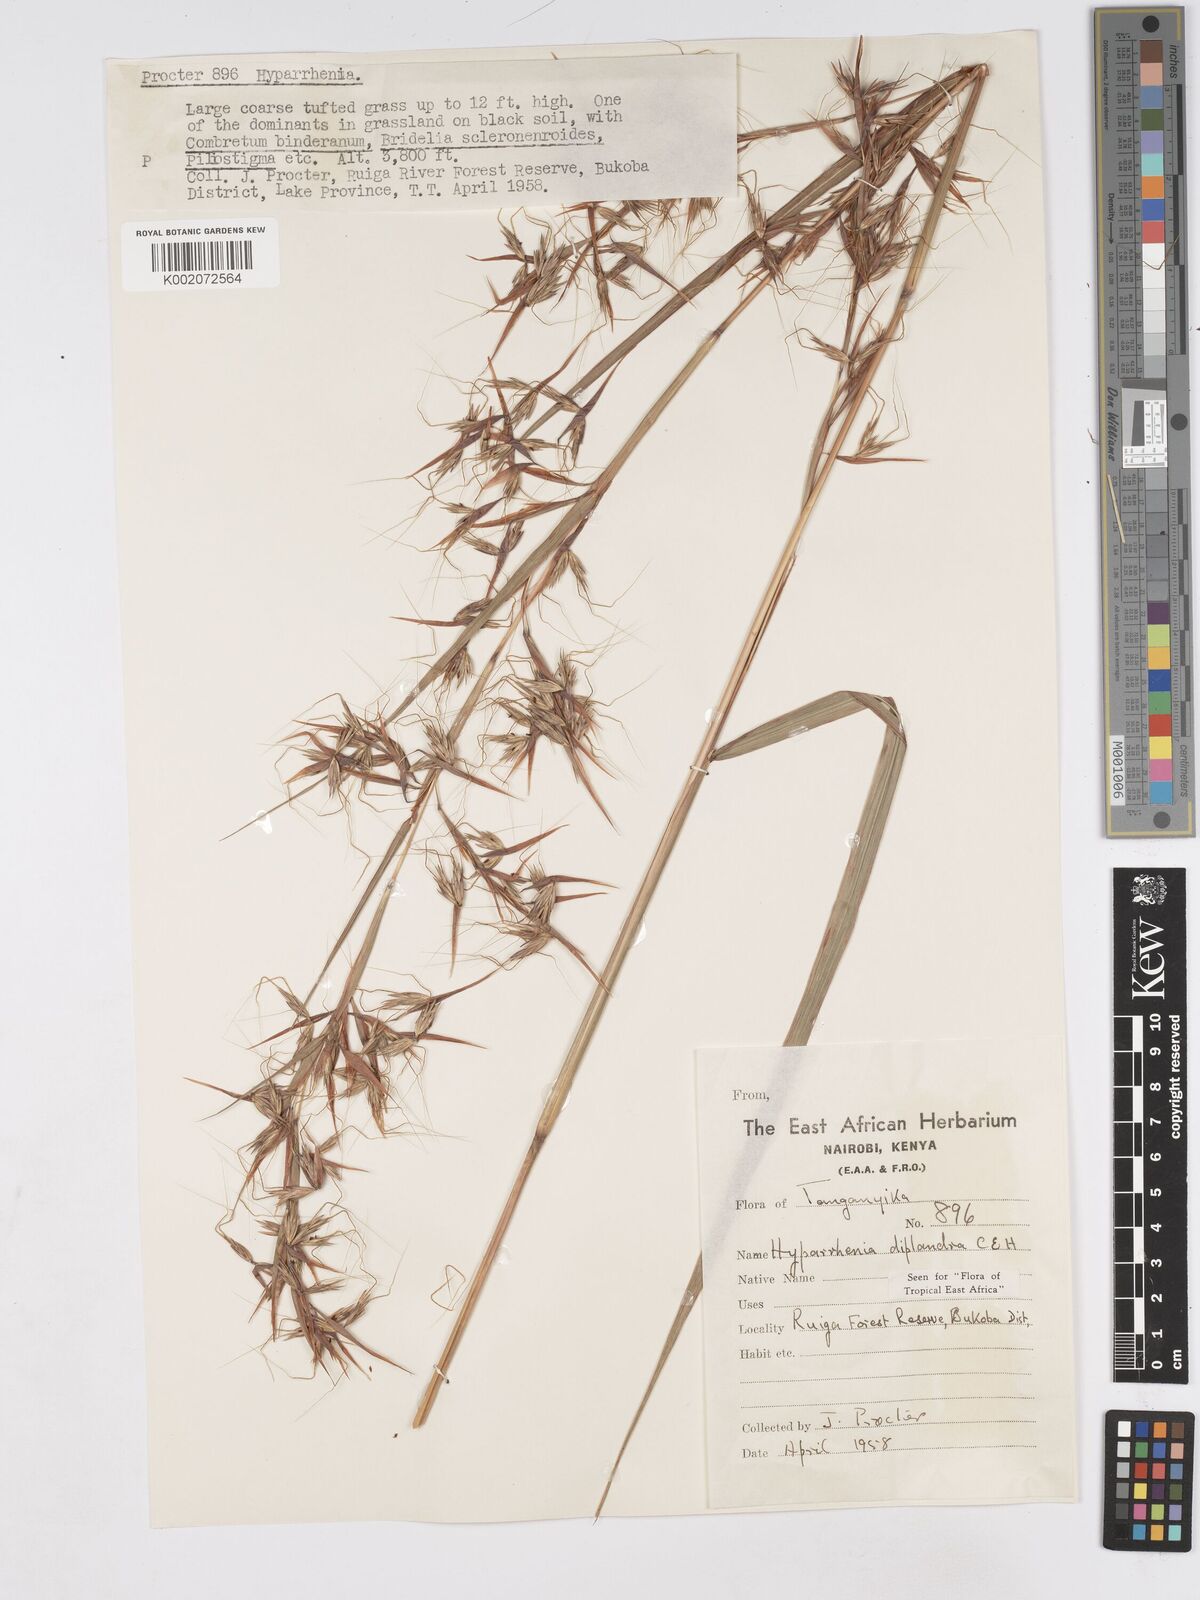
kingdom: Plantae
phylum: Tracheophyta
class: Liliopsida
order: Poales
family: Poaceae
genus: Hyparrhenia
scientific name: Hyparrhenia diplandra
